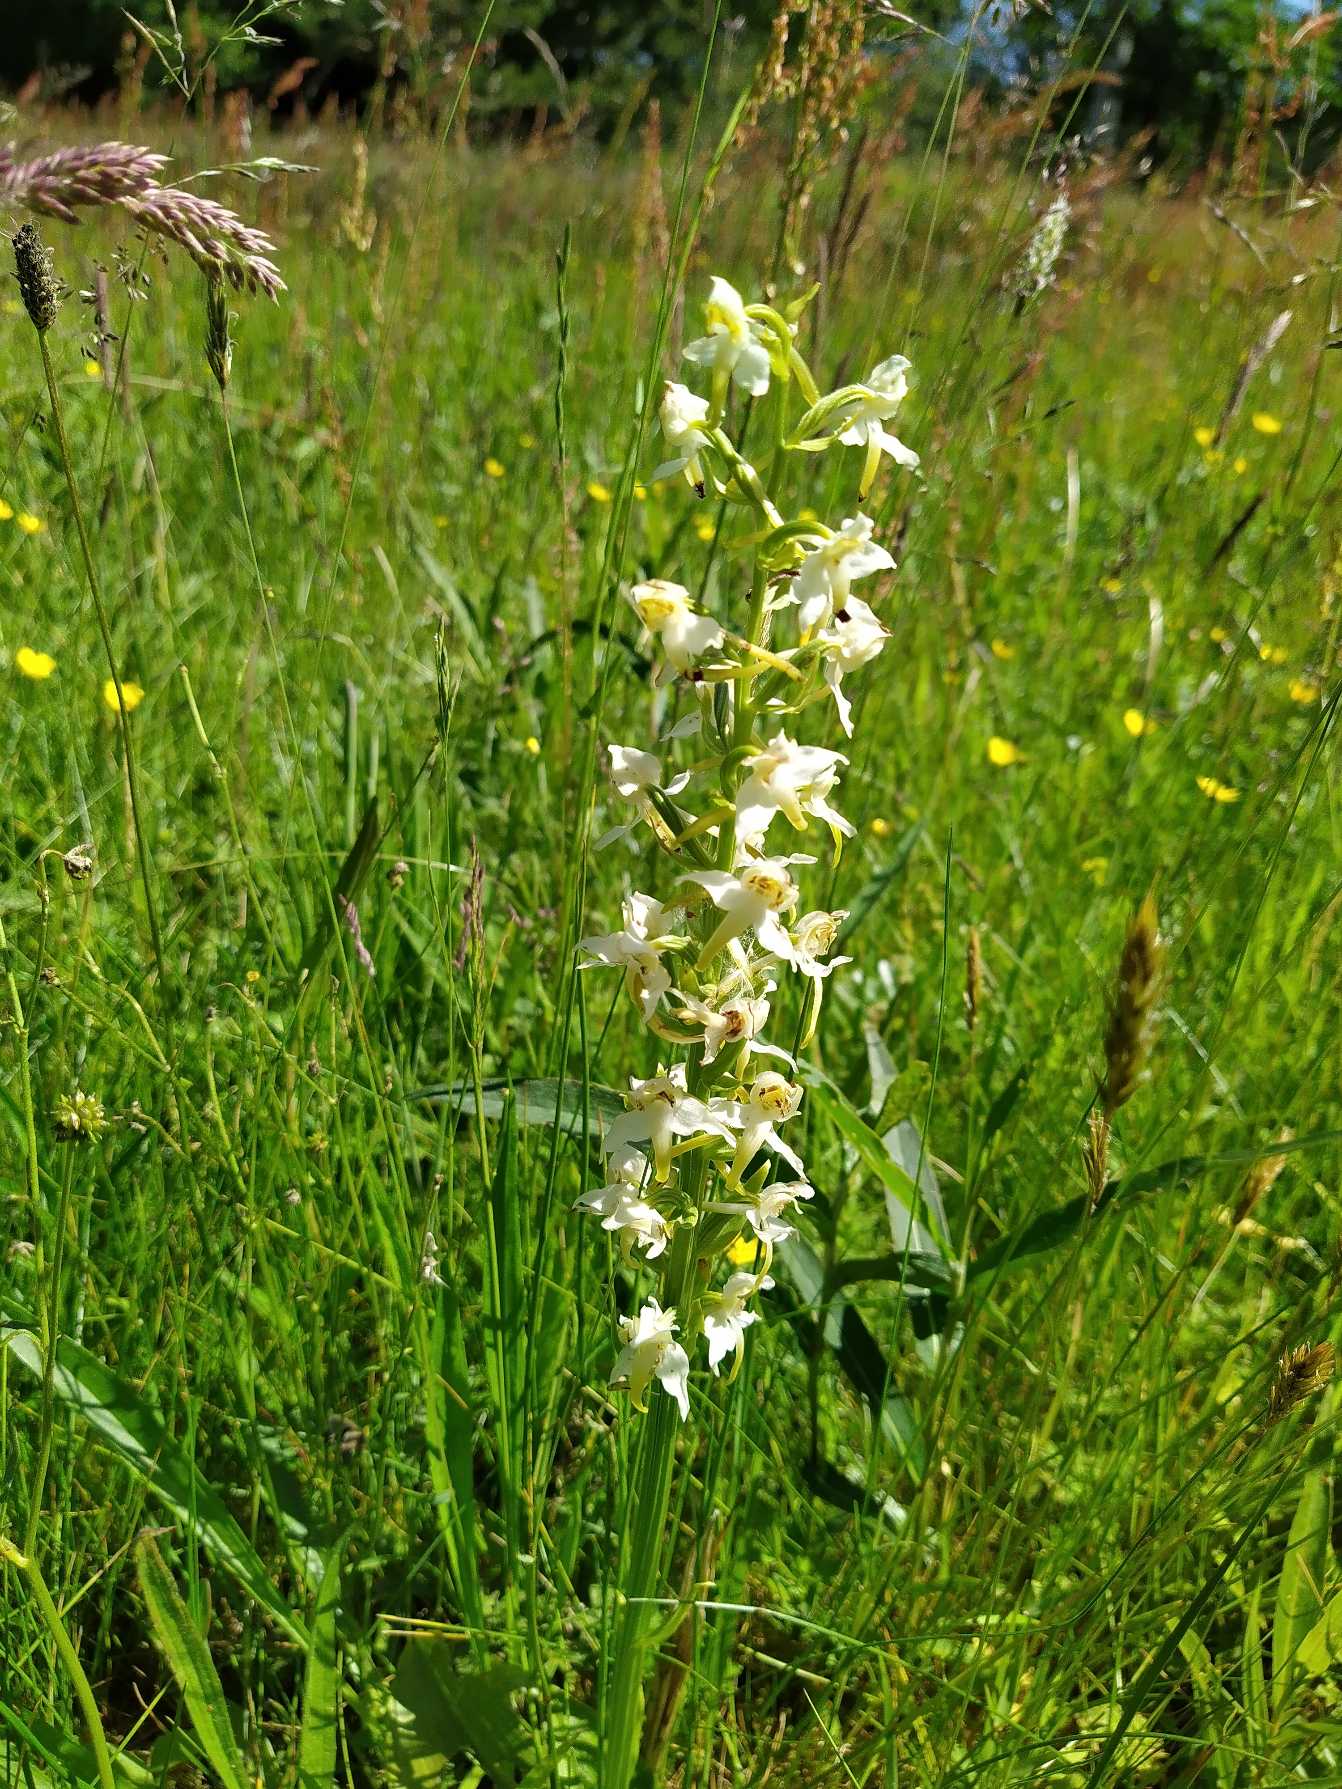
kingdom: Plantae
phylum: Tracheophyta
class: Liliopsida
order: Asparagales
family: Orchidaceae
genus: Platanthera
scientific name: Platanthera chlorantha
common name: Skov-gøgelilje
